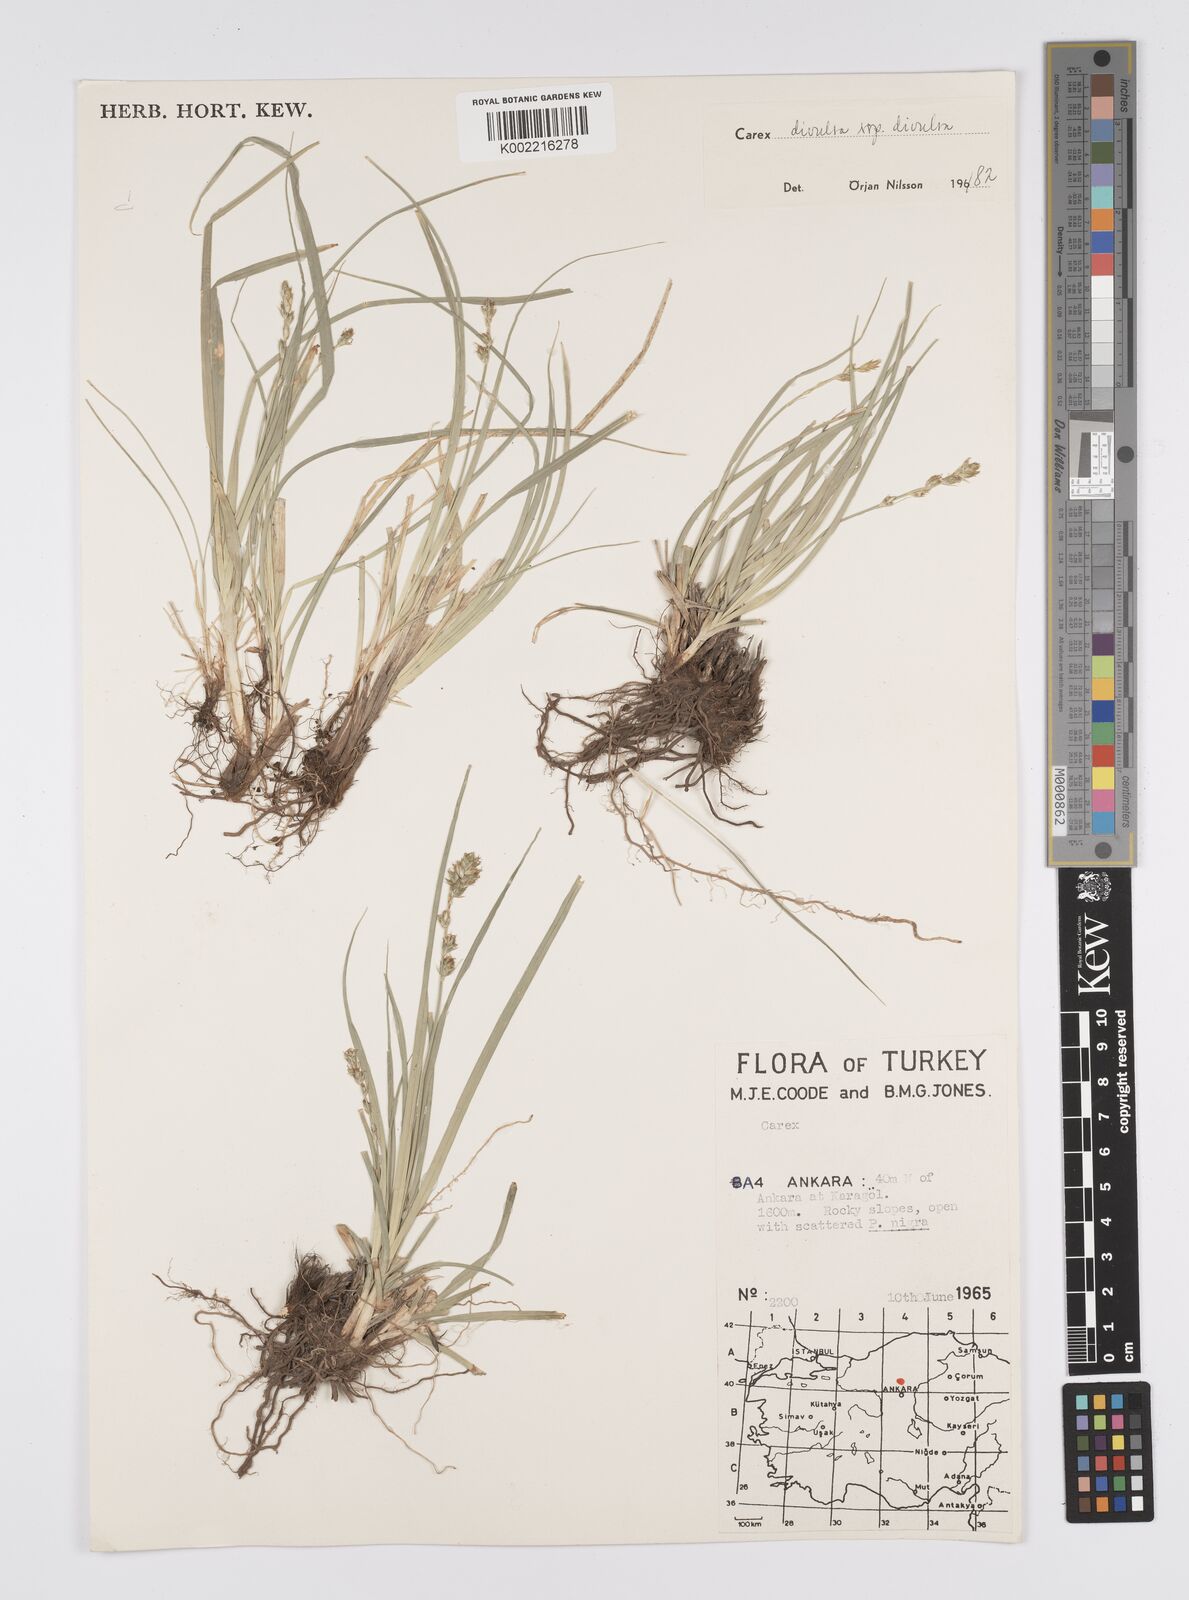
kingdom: Plantae
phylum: Tracheophyta
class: Liliopsida
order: Poales
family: Cyperaceae
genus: Carex
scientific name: Carex divulsa
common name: Grassland sedge
